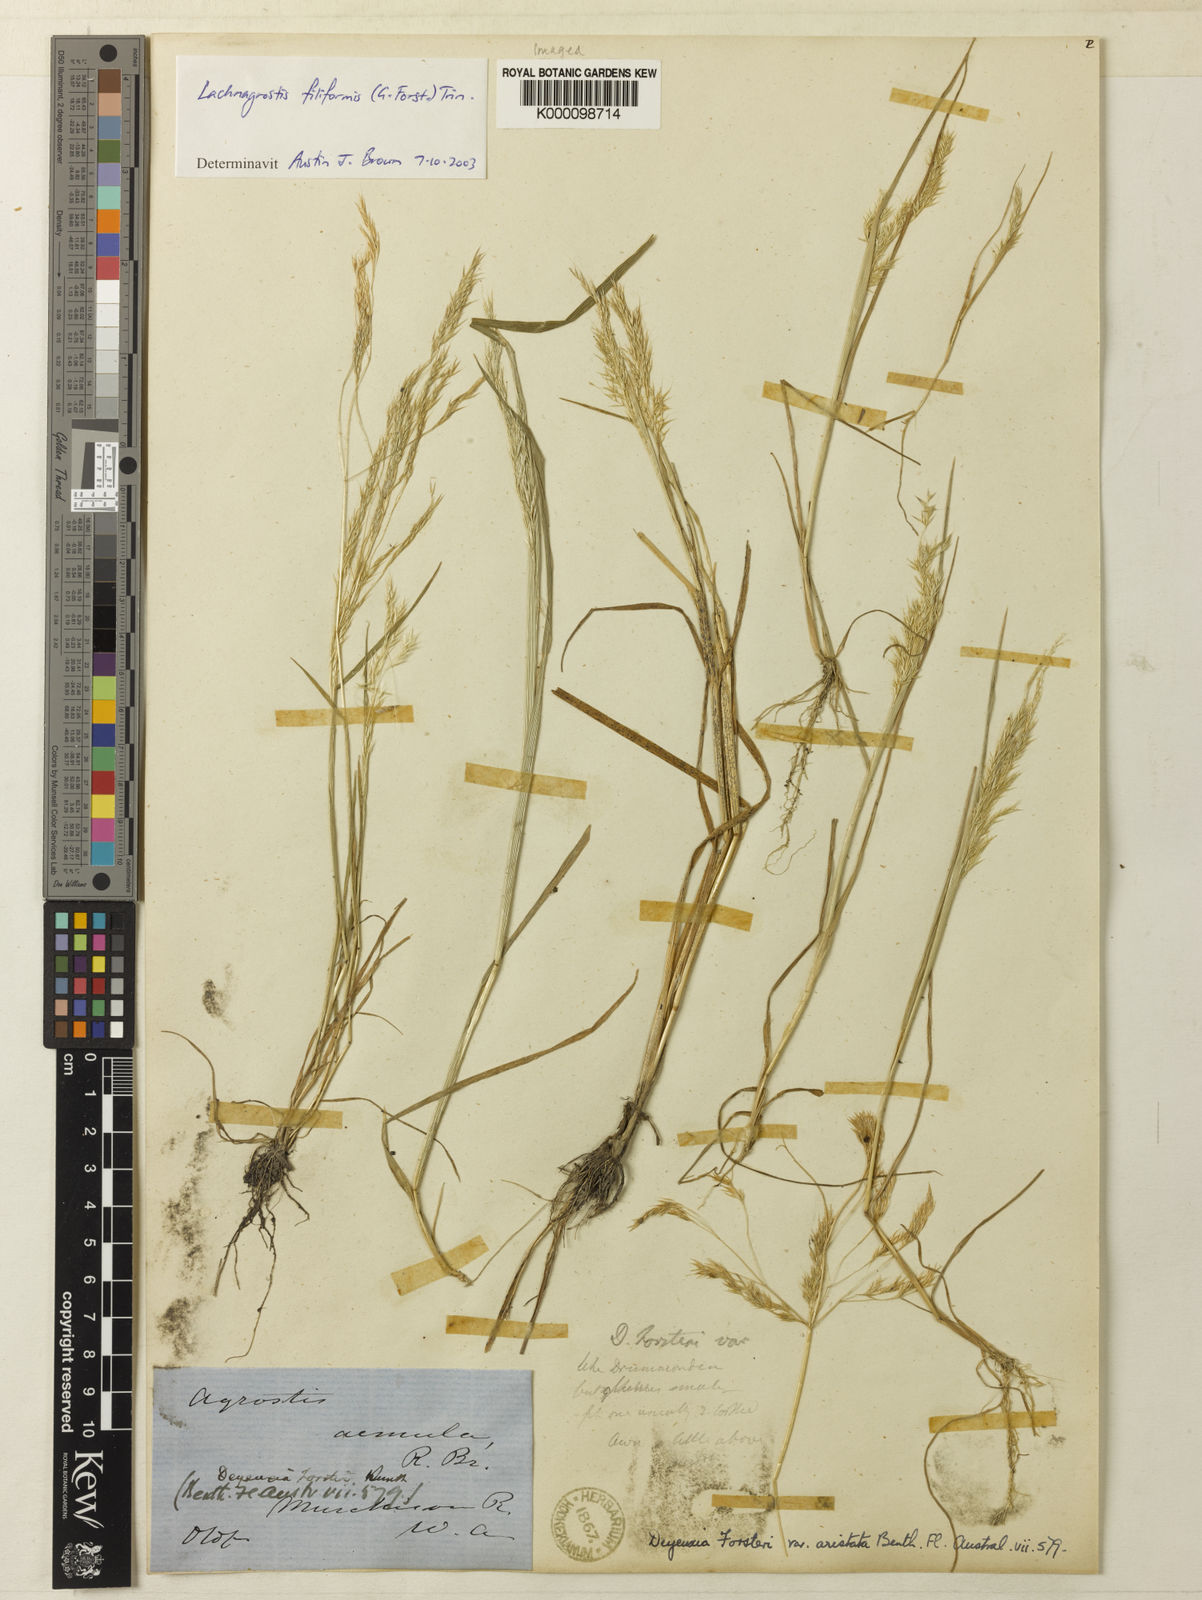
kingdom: Plantae
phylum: Tracheophyta
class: Liliopsida
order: Poales
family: Poaceae
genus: Lachnagrostis
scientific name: Lachnagrostis filiformis
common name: Bentgrass
